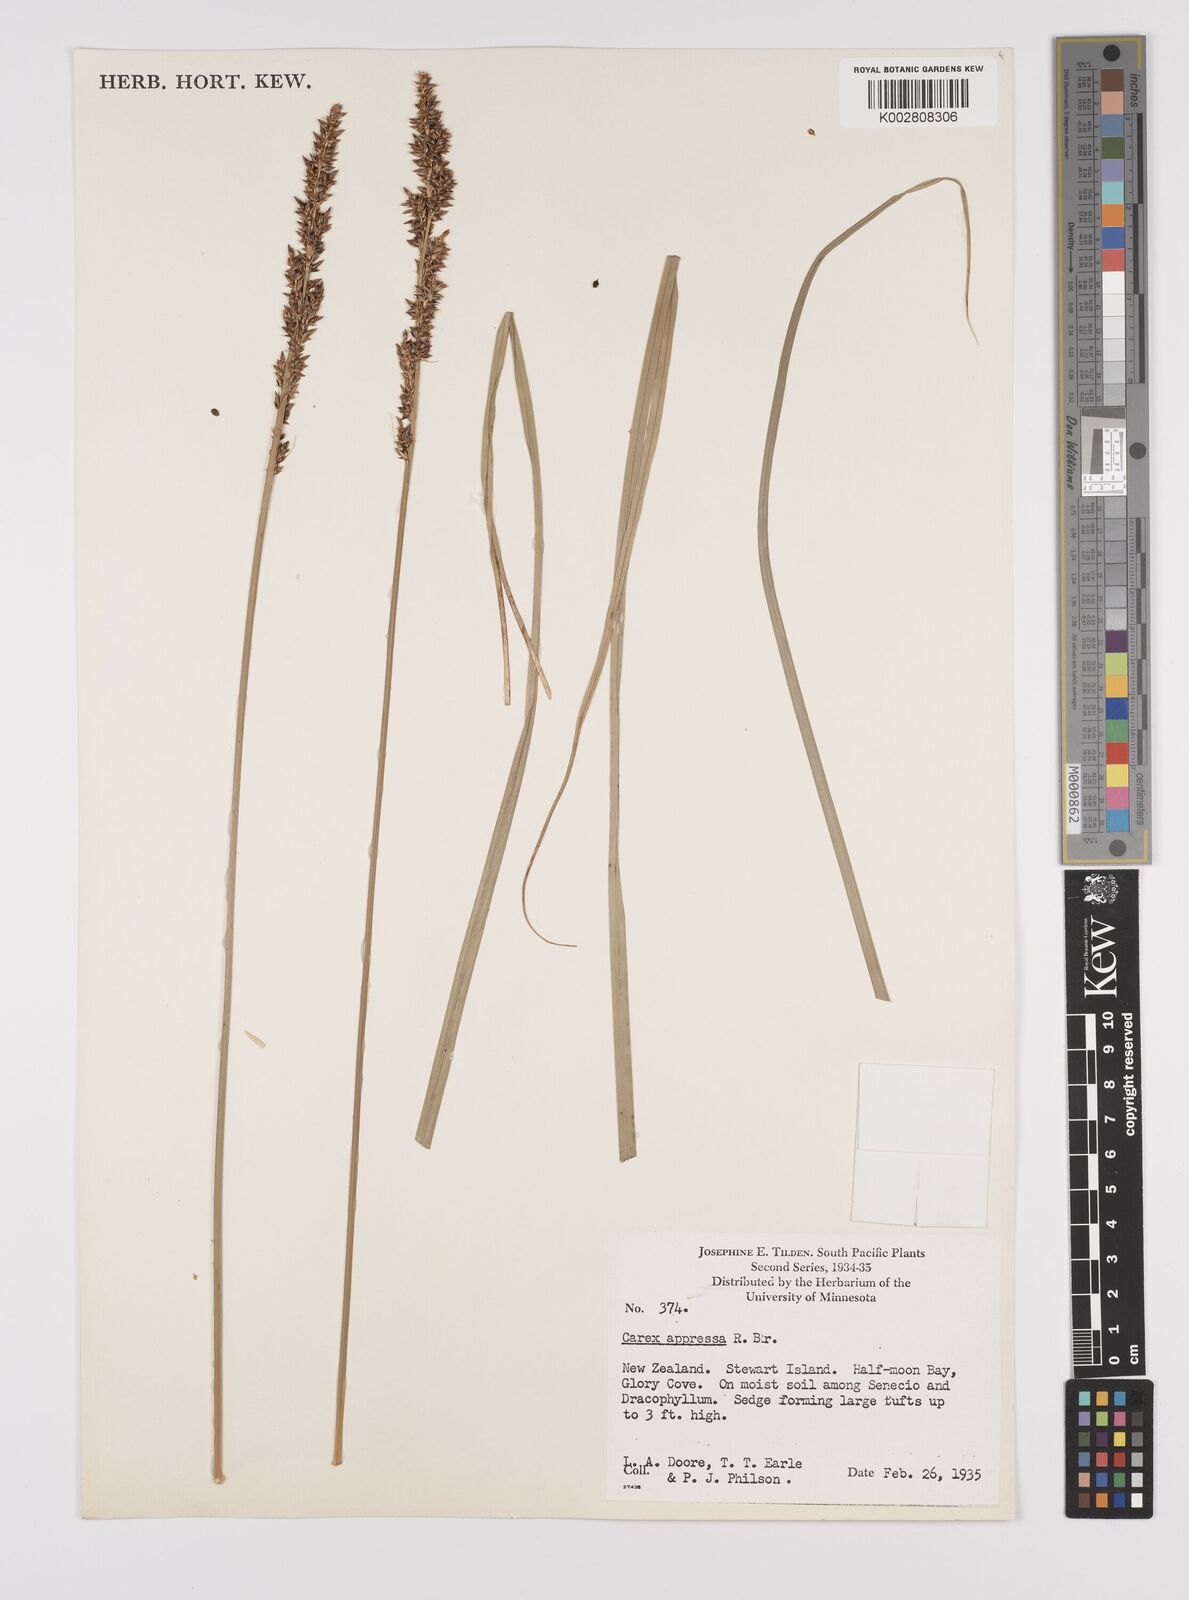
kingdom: Plantae
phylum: Tracheophyta
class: Liliopsida
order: Poales
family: Cyperaceae
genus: Carex
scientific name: Carex appressa
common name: Tussock sedge
